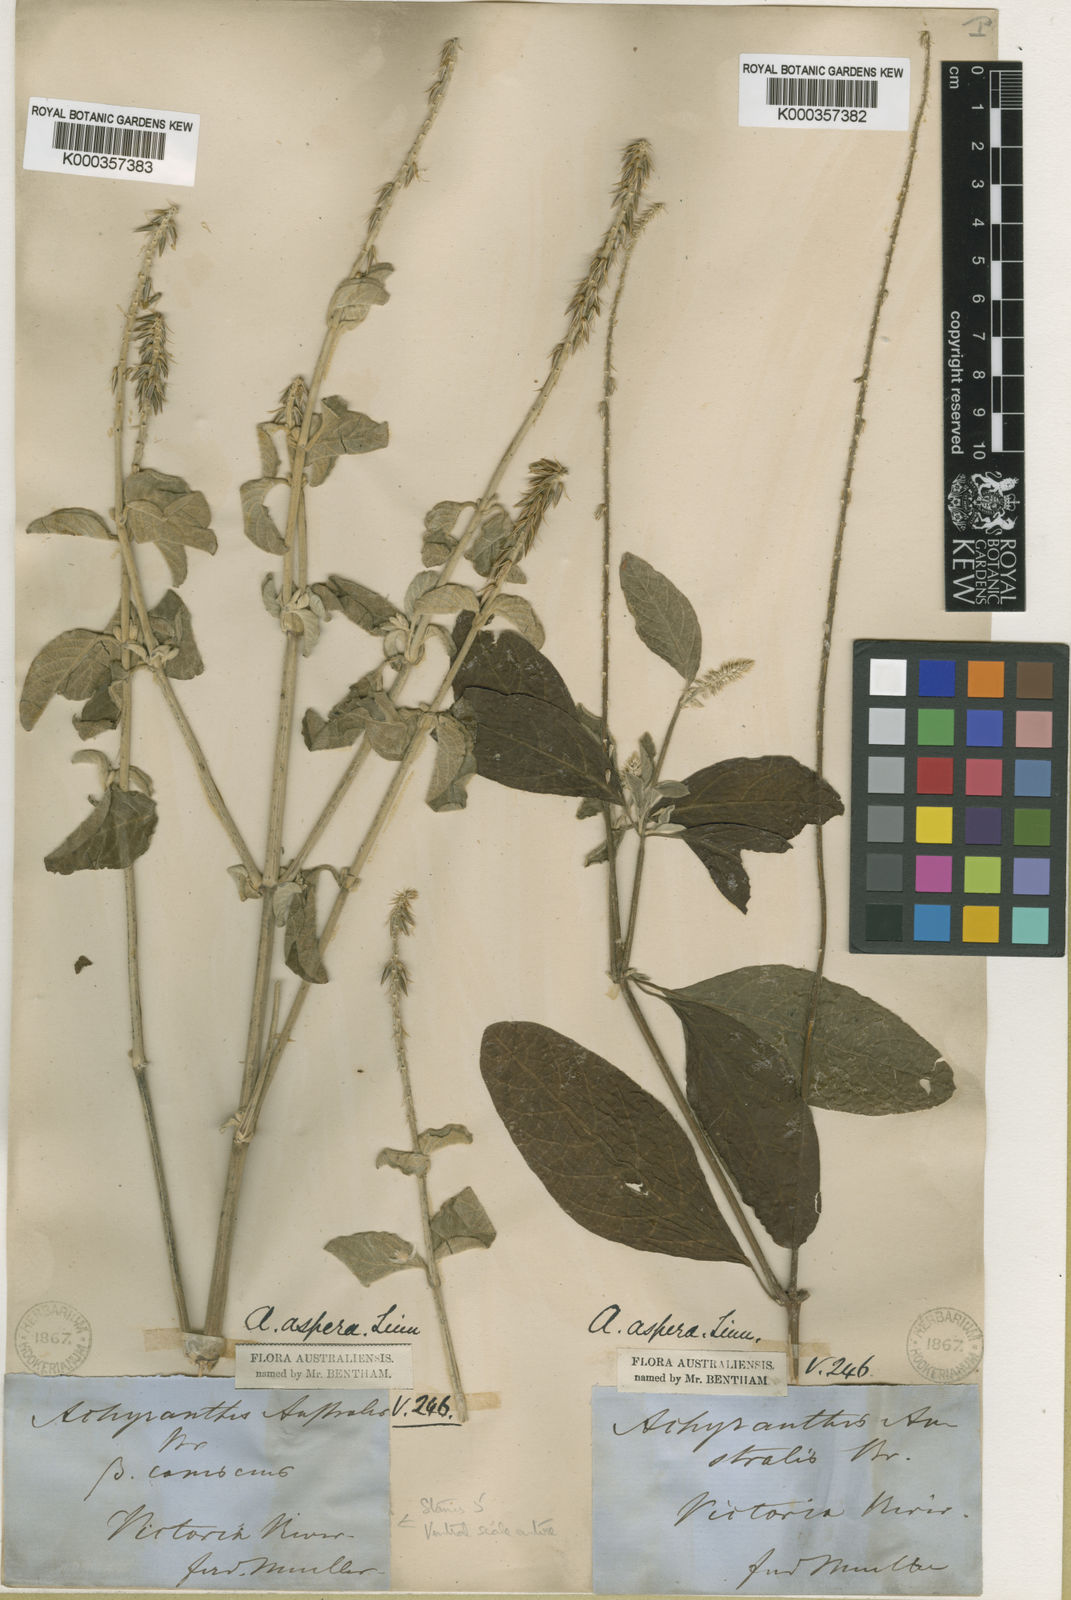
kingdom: Plantae
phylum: Tracheophyta
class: Magnoliopsida
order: Caryophyllales
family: Amaranthaceae
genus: Achyranthes
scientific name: Achyranthes aspera
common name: Devil's horsewhip
